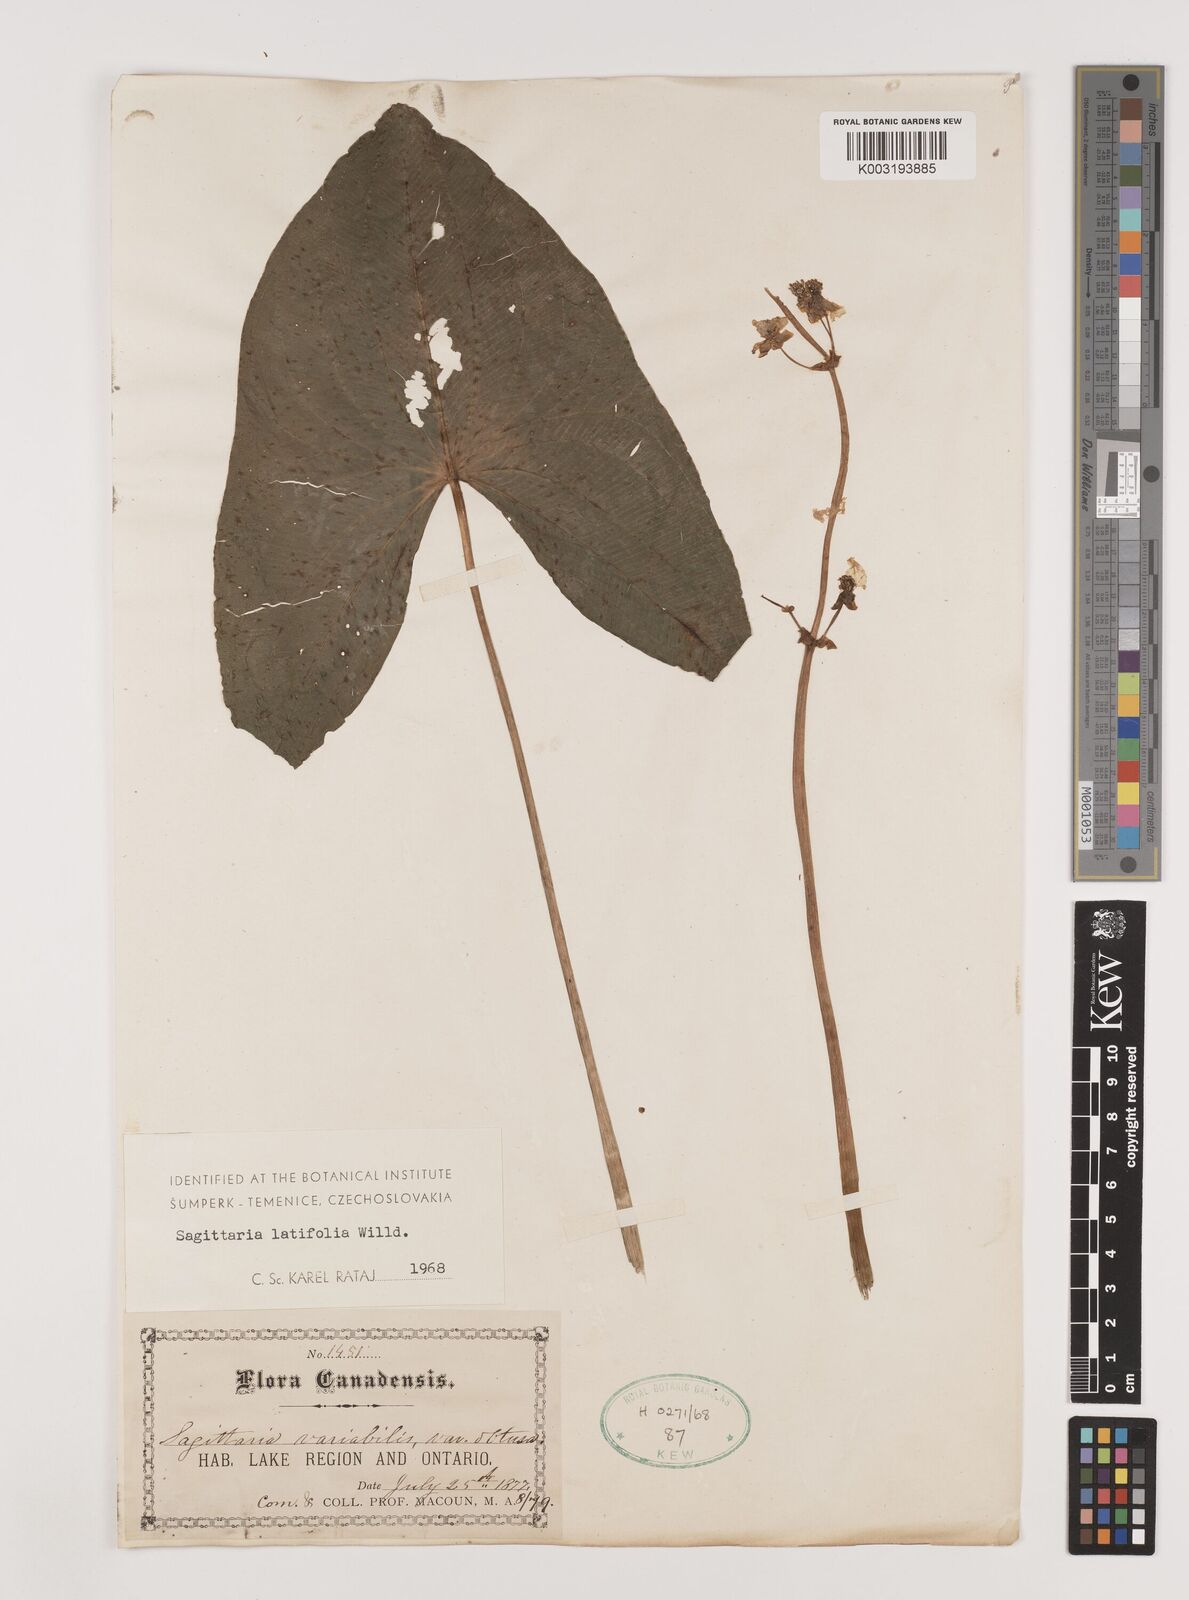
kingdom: Plantae
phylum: Tracheophyta
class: Liliopsida
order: Alismatales
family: Alismataceae
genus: Sagittaria
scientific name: Sagittaria latifolia
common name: Duck-potato
